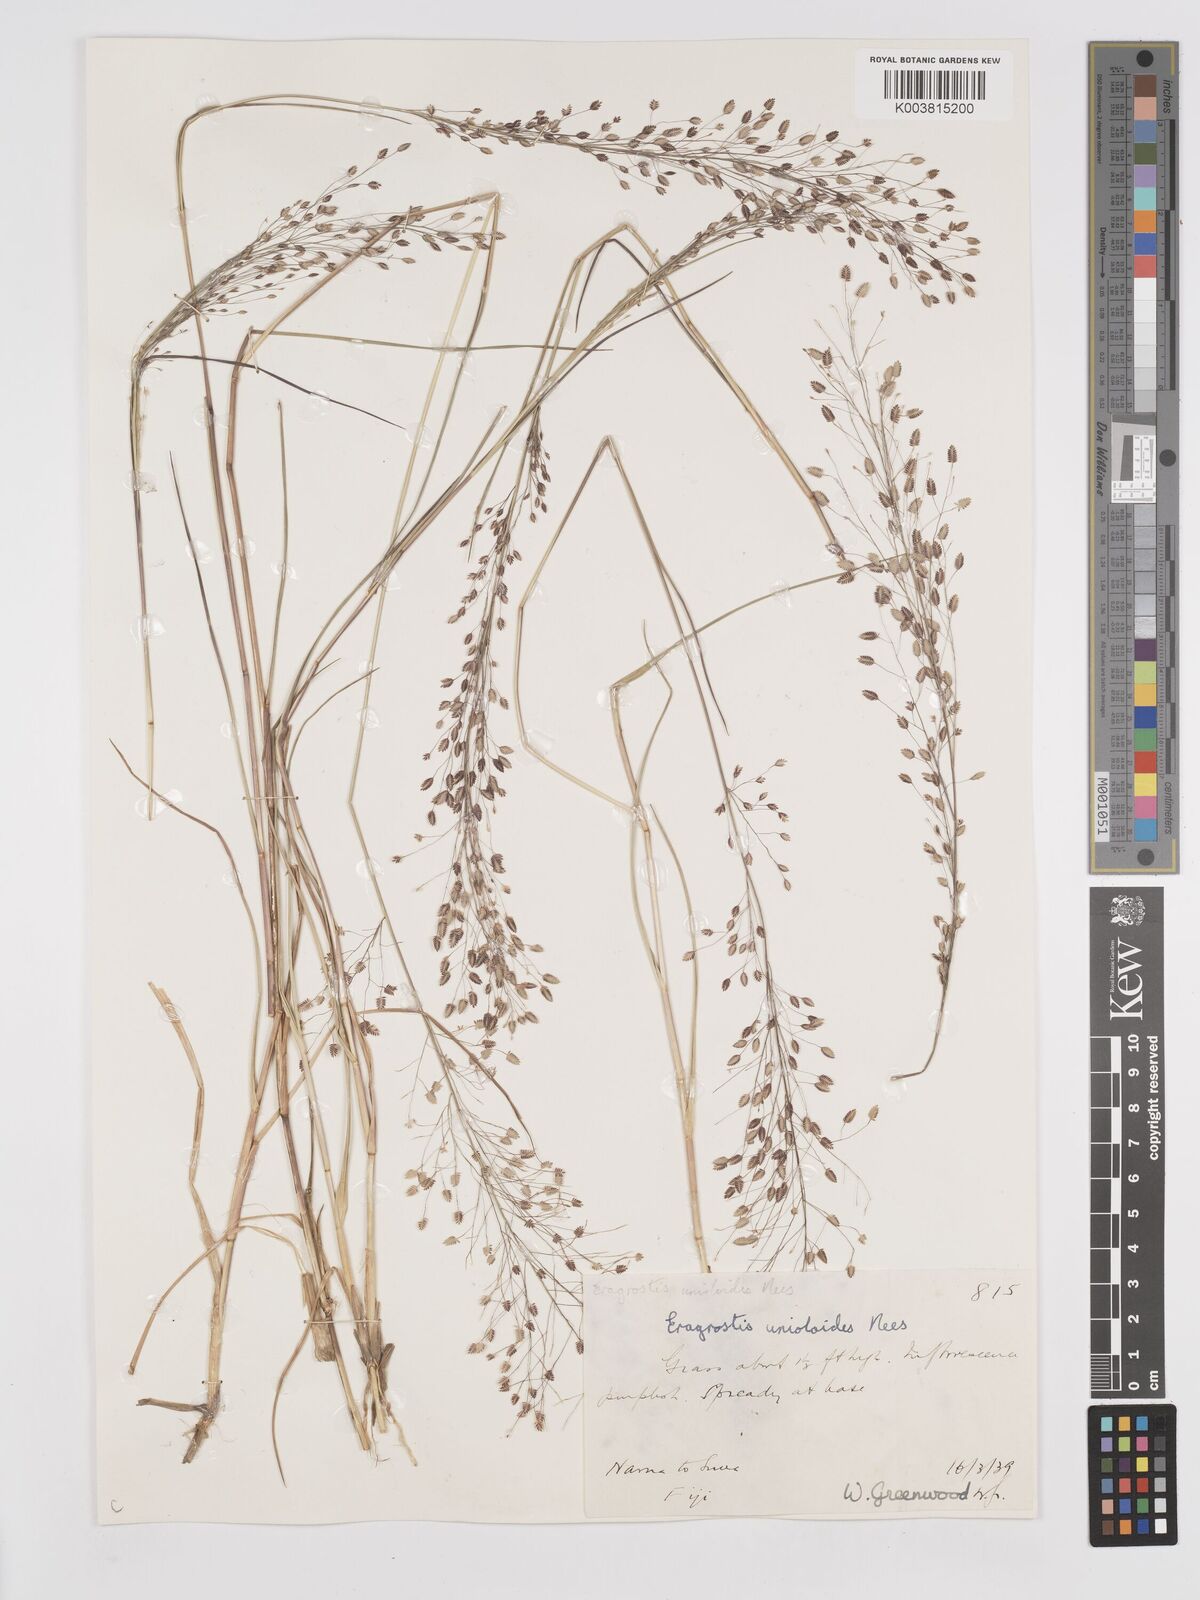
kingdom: Plantae
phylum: Tracheophyta
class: Liliopsida
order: Poales
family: Poaceae
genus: Eragrostis
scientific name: Eragrostis unioloides
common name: Chinese lovegrass
